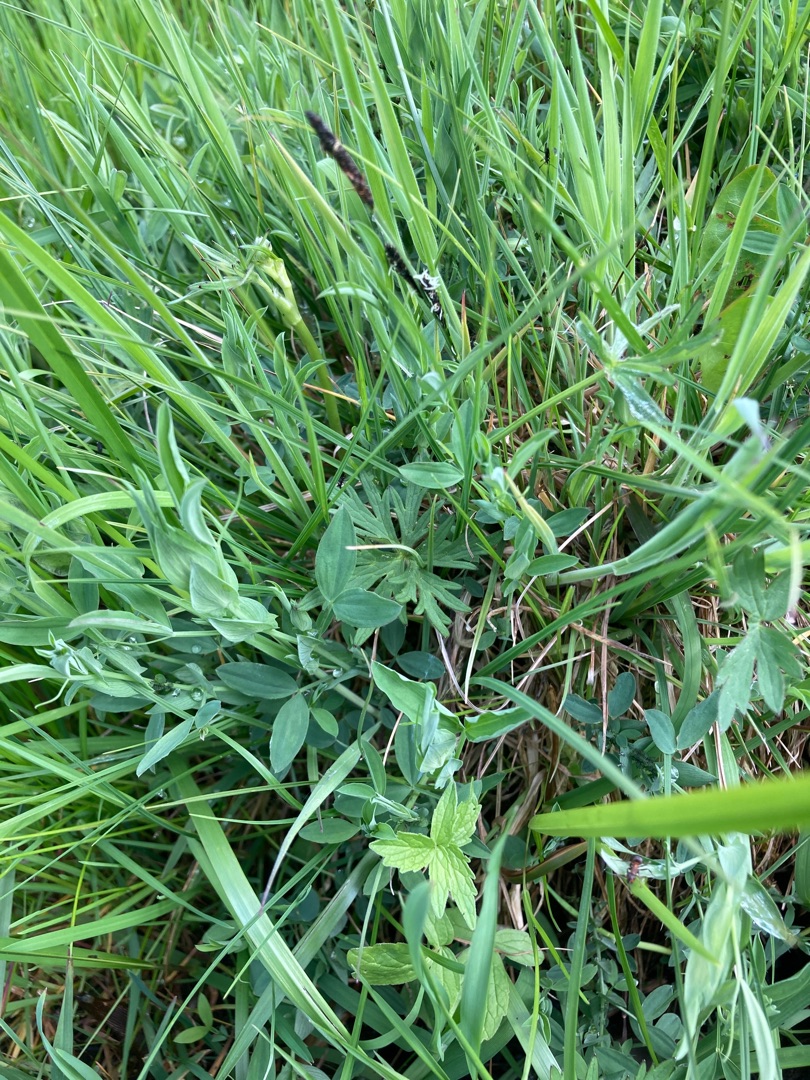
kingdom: Plantae
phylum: Tracheophyta
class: Magnoliopsida
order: Fabales
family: Fabaceae
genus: Lathyrus
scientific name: Lathyrus pratensis
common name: Gul fladbælg
